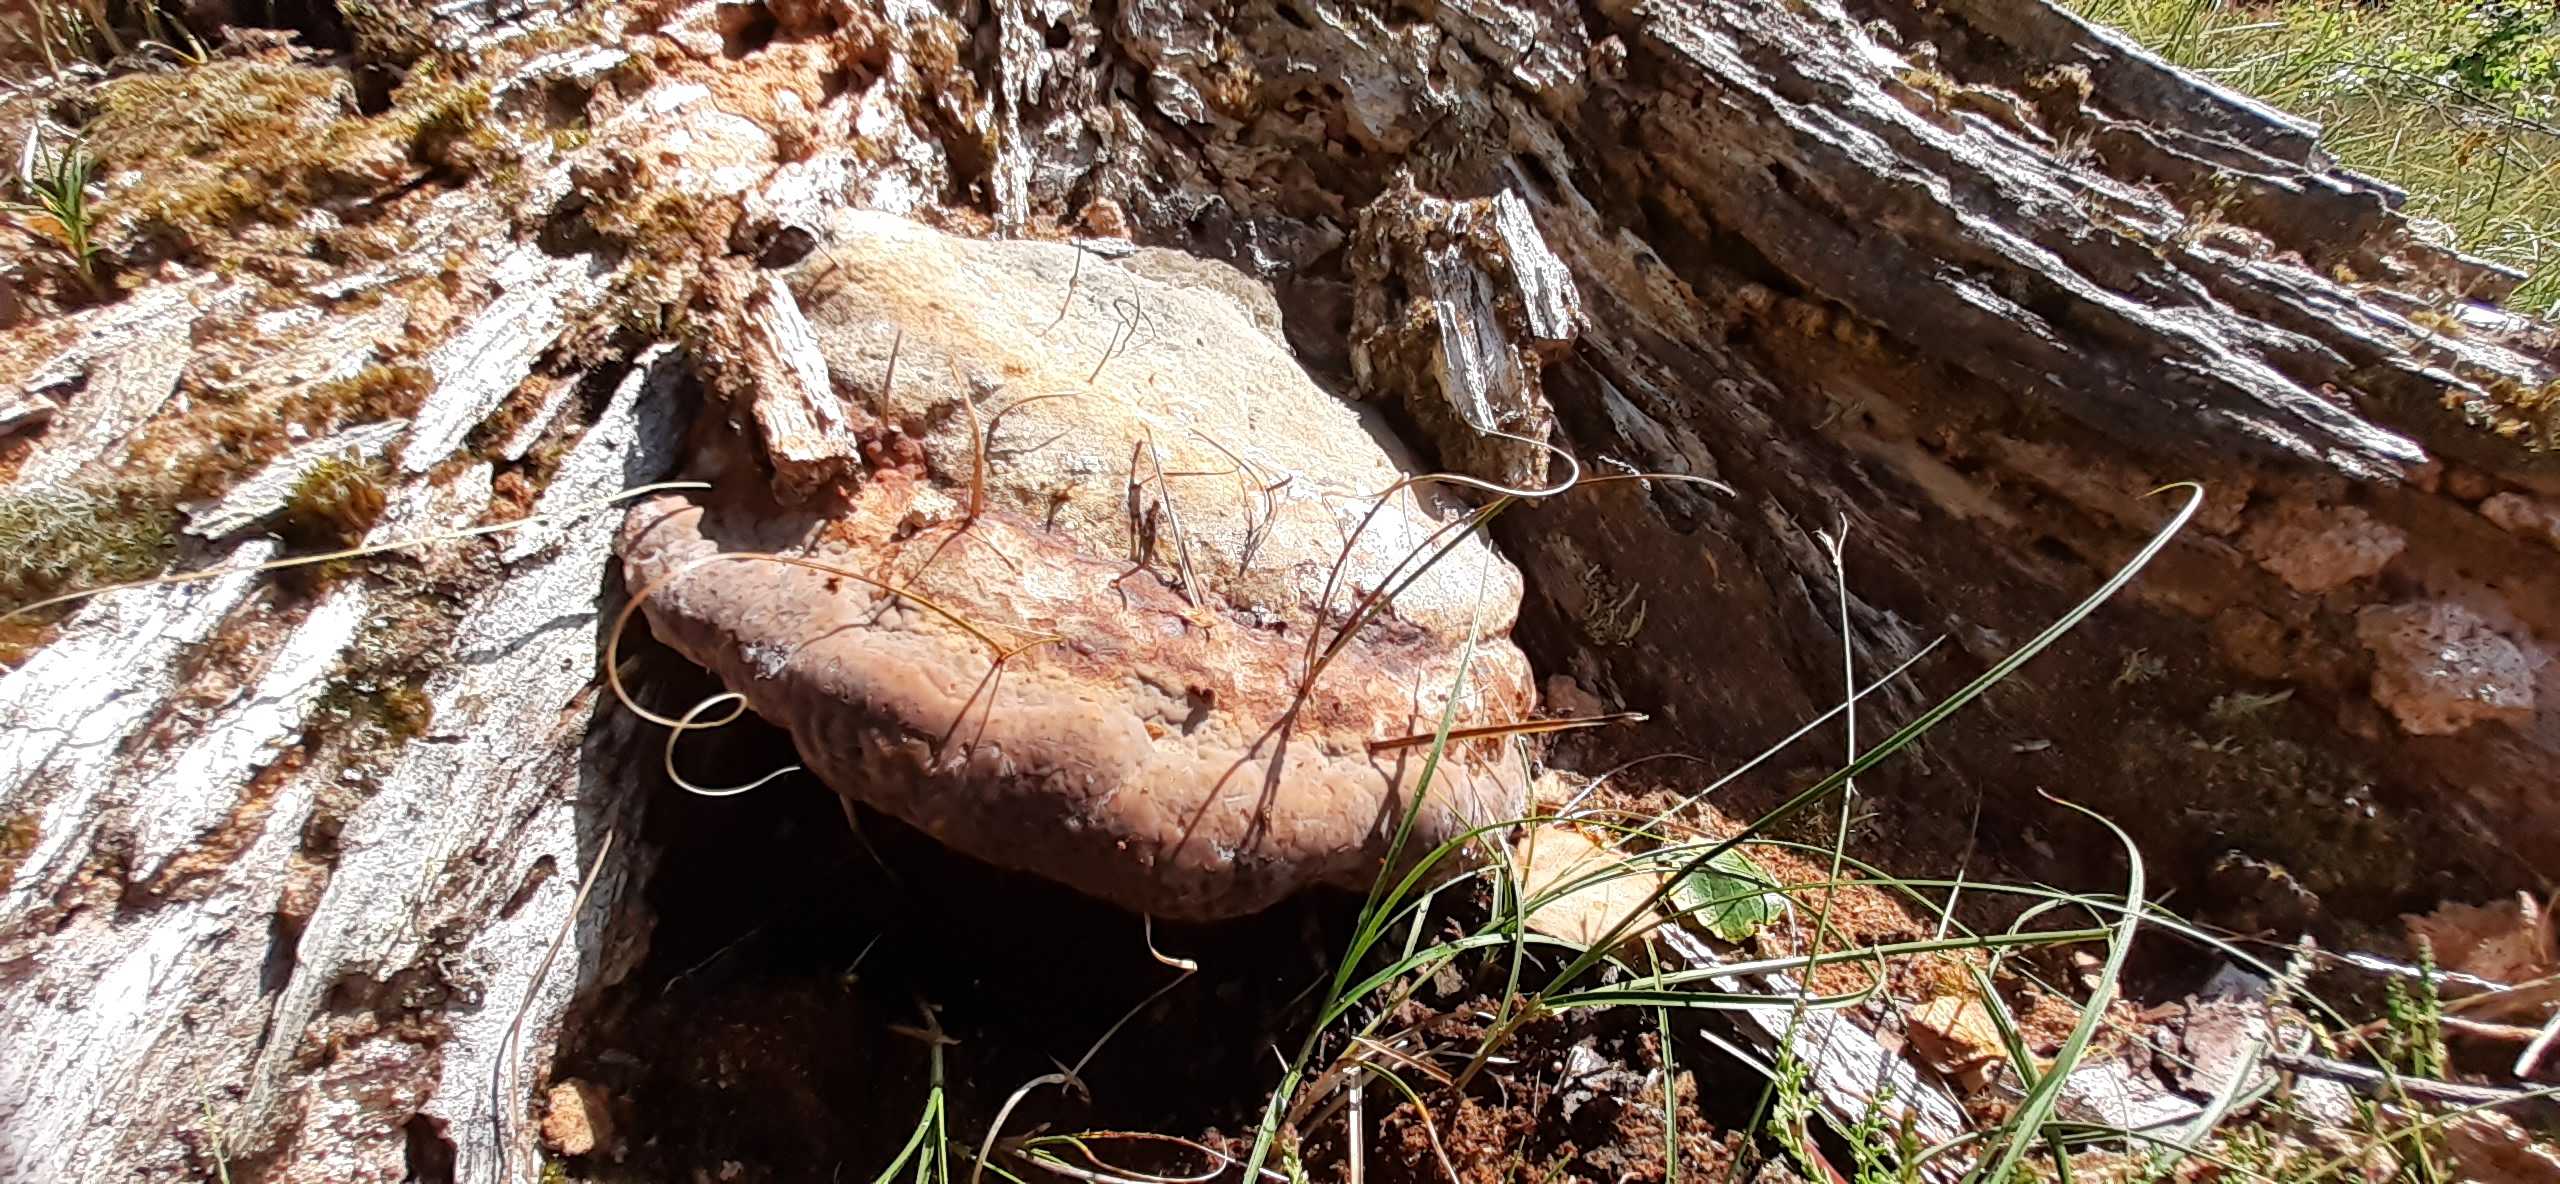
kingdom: Fungi
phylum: Basidiomycota
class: Agaricomycetes
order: Polyporales
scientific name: Polyporales
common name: poresvampordenen
